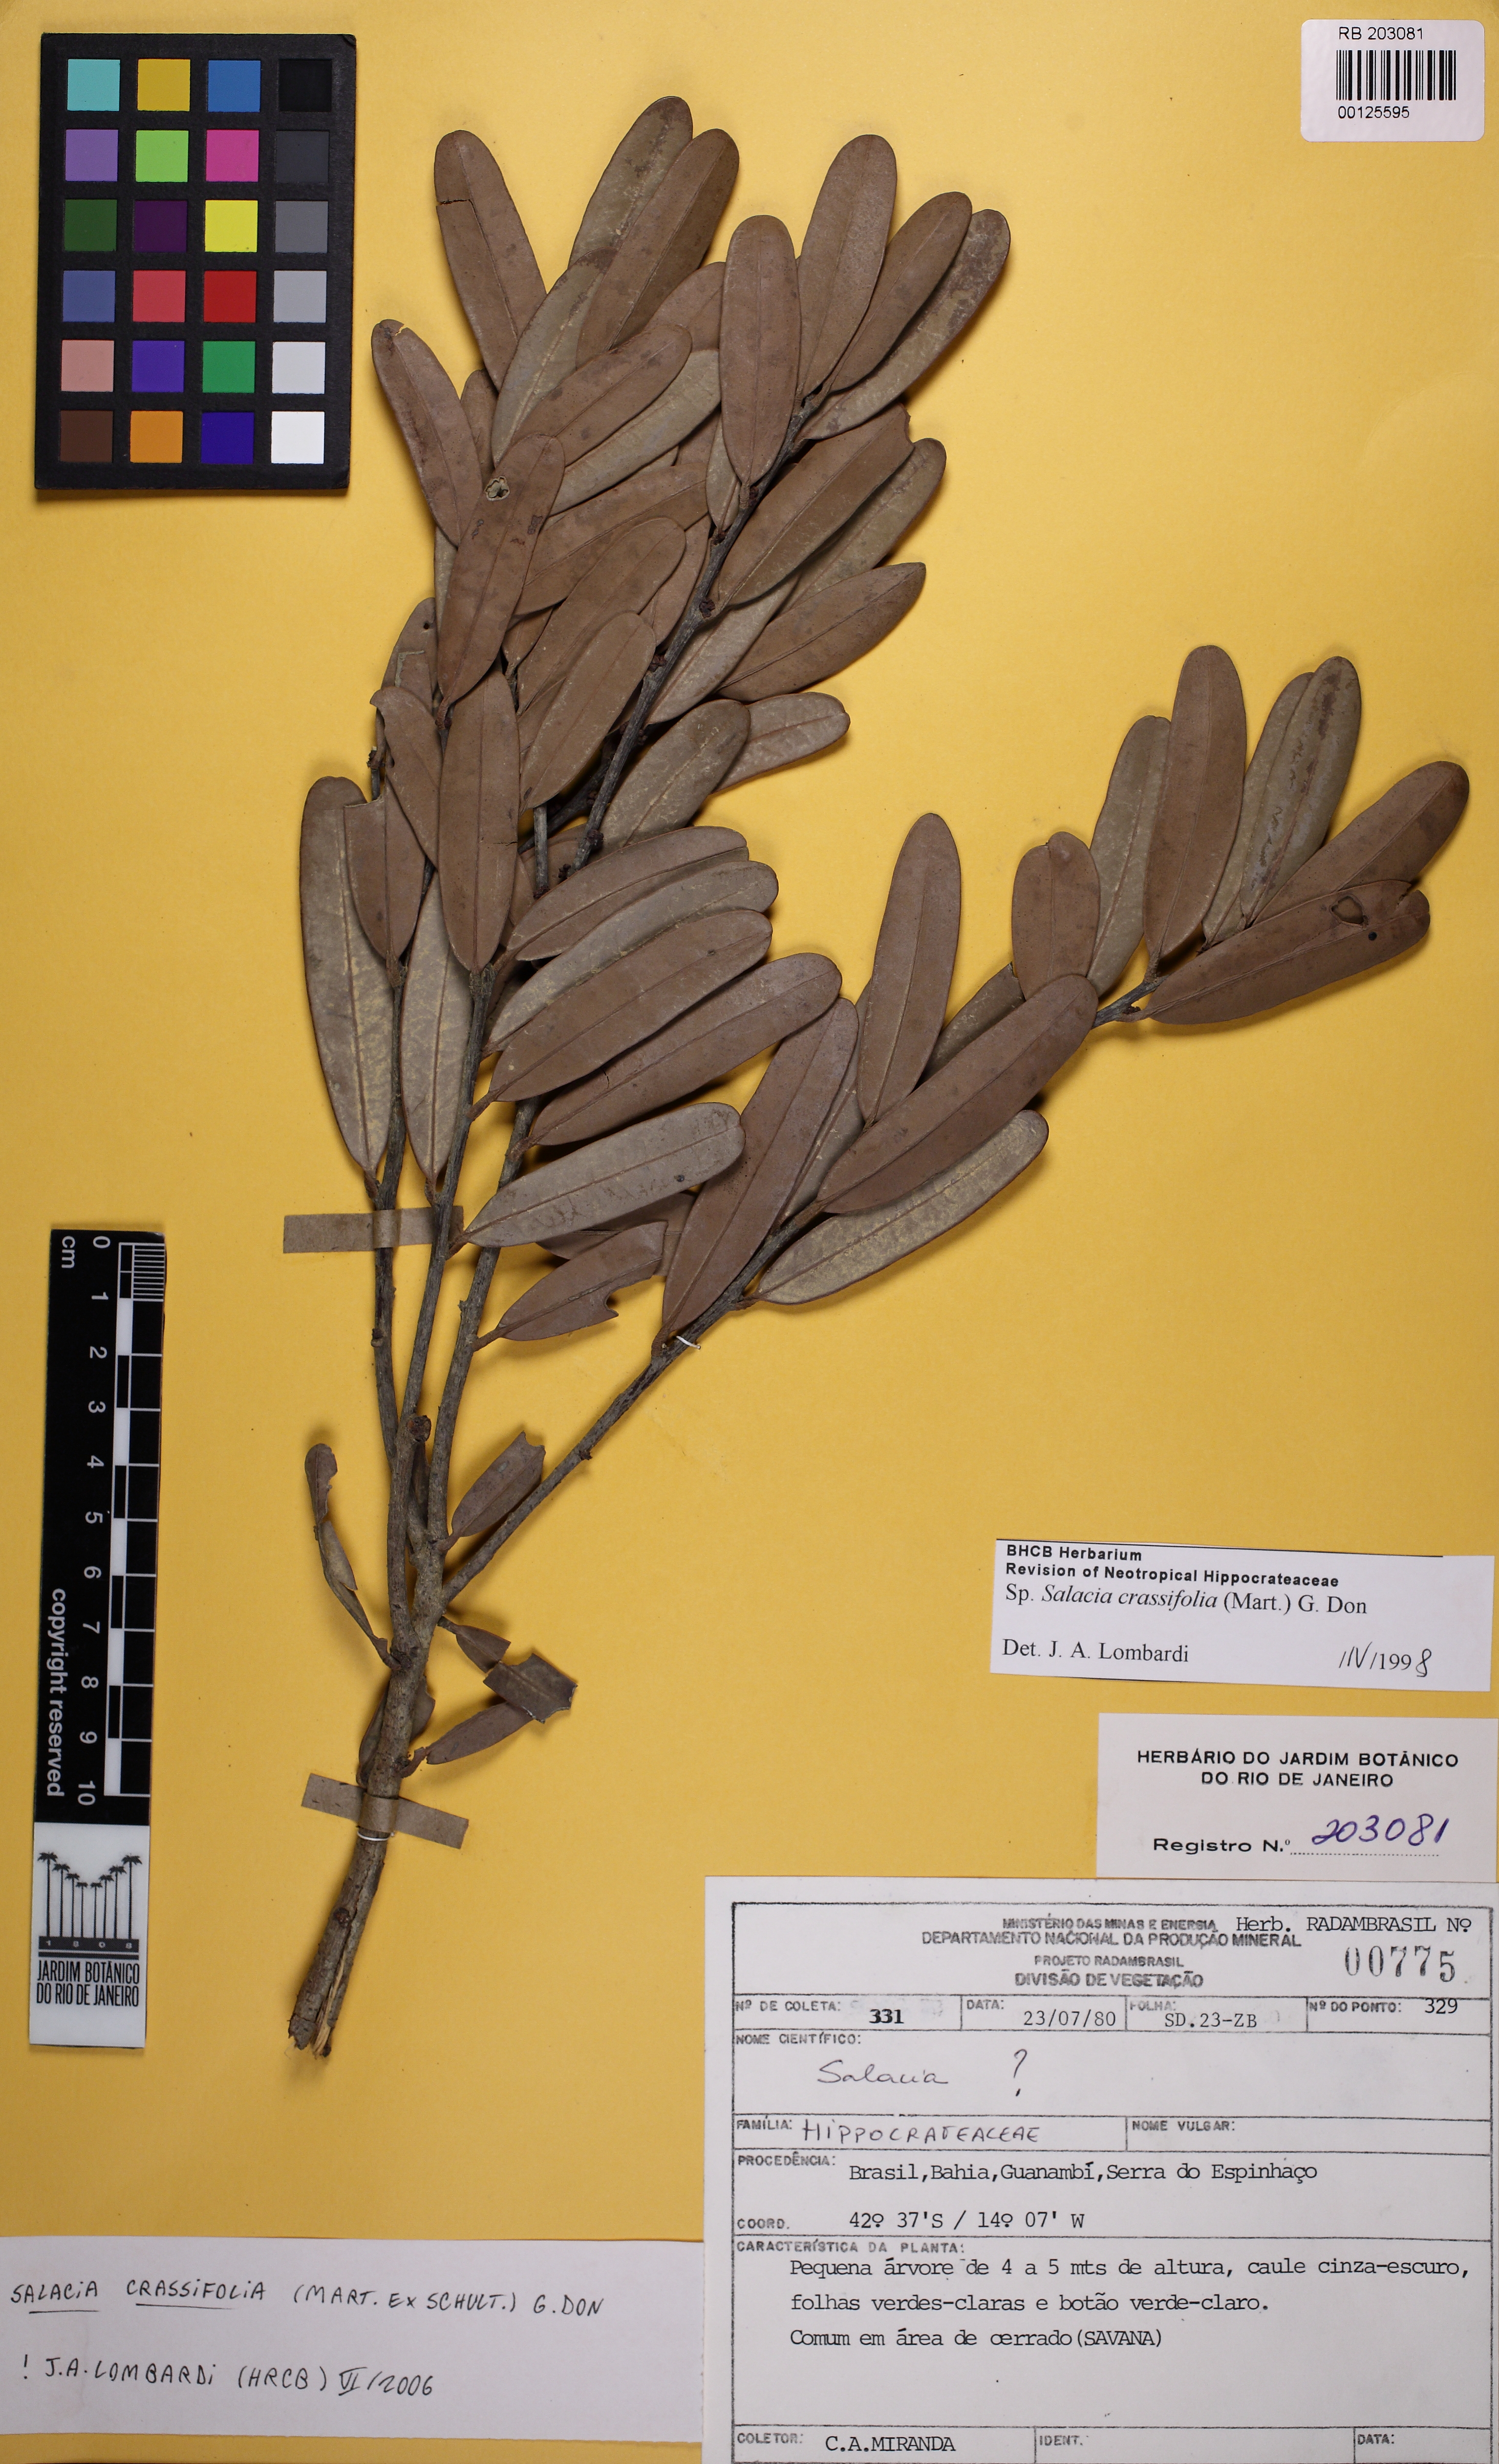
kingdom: Plantae
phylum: Tracheophyta
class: Magnoliopsida
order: Celastrales
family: Celastraceae
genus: Salacia
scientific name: Salacia grandifolia
